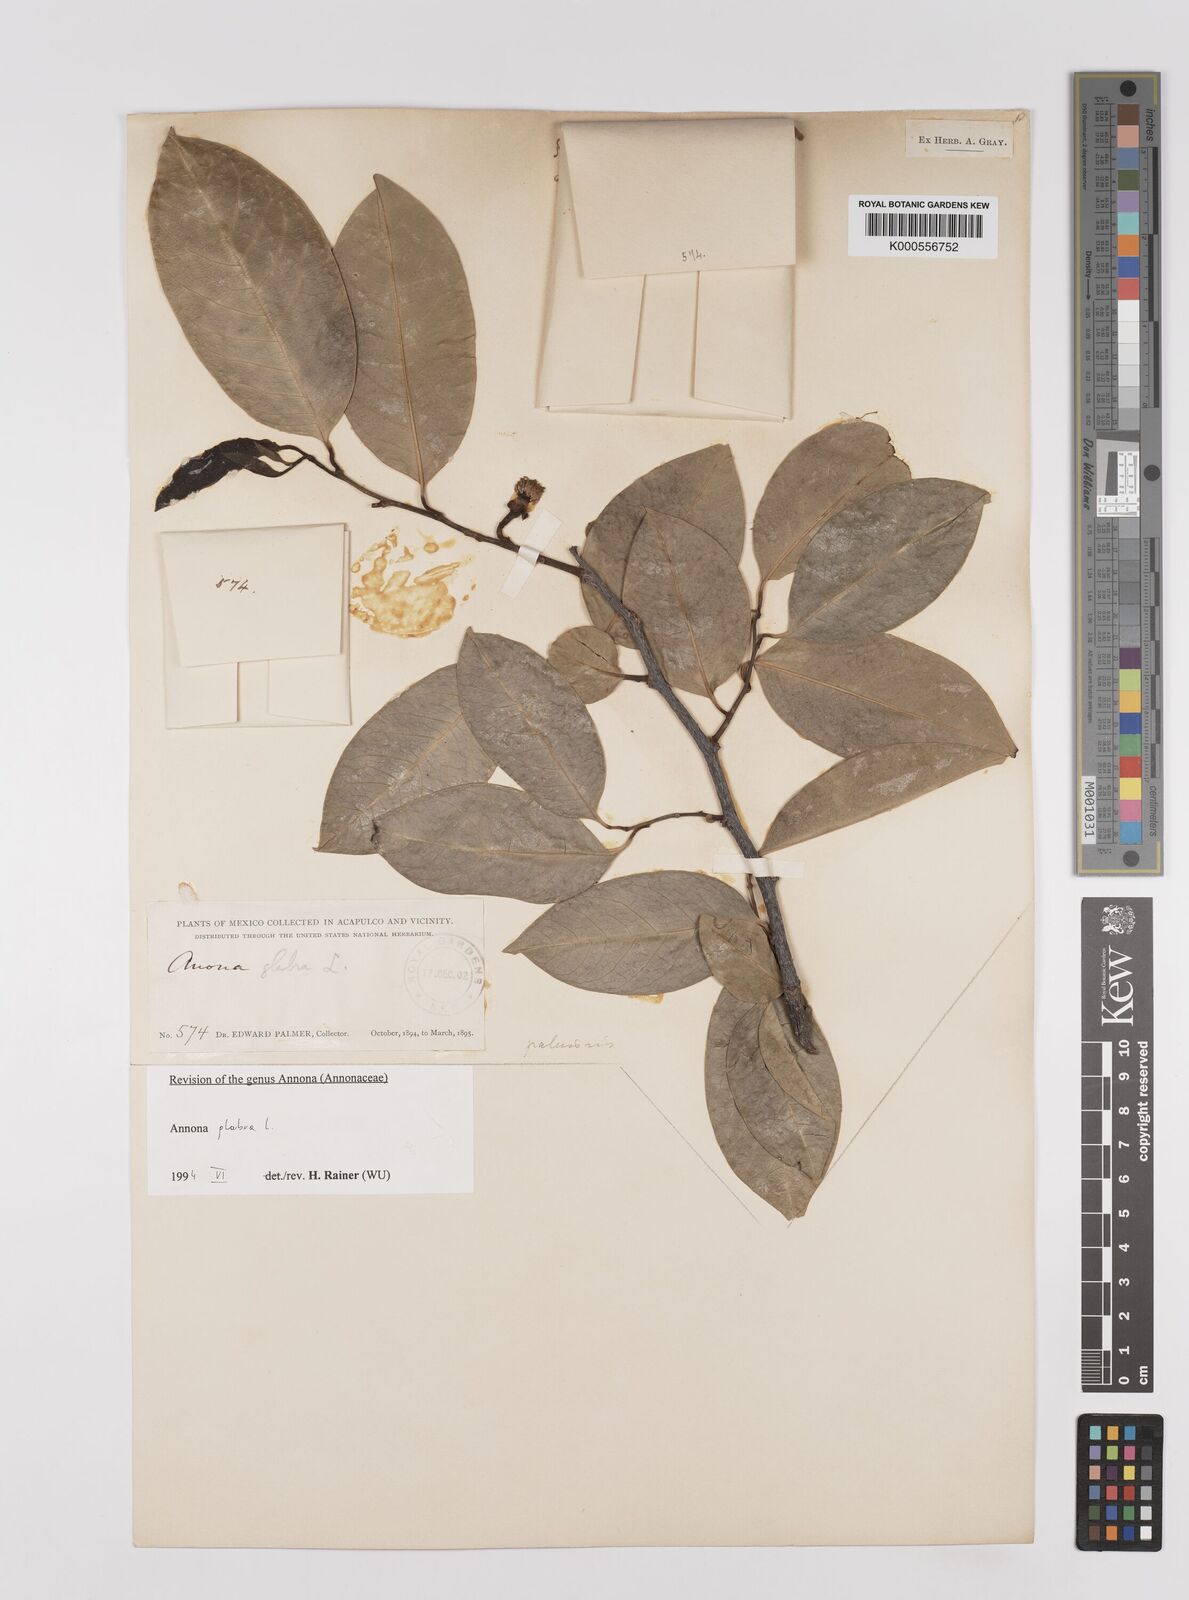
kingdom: Plantae
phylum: Tracheophyta
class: Magnoliopsida
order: Magnoliales
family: Annonaceae
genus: Annona
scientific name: Annona glabra
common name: Monkey apple
